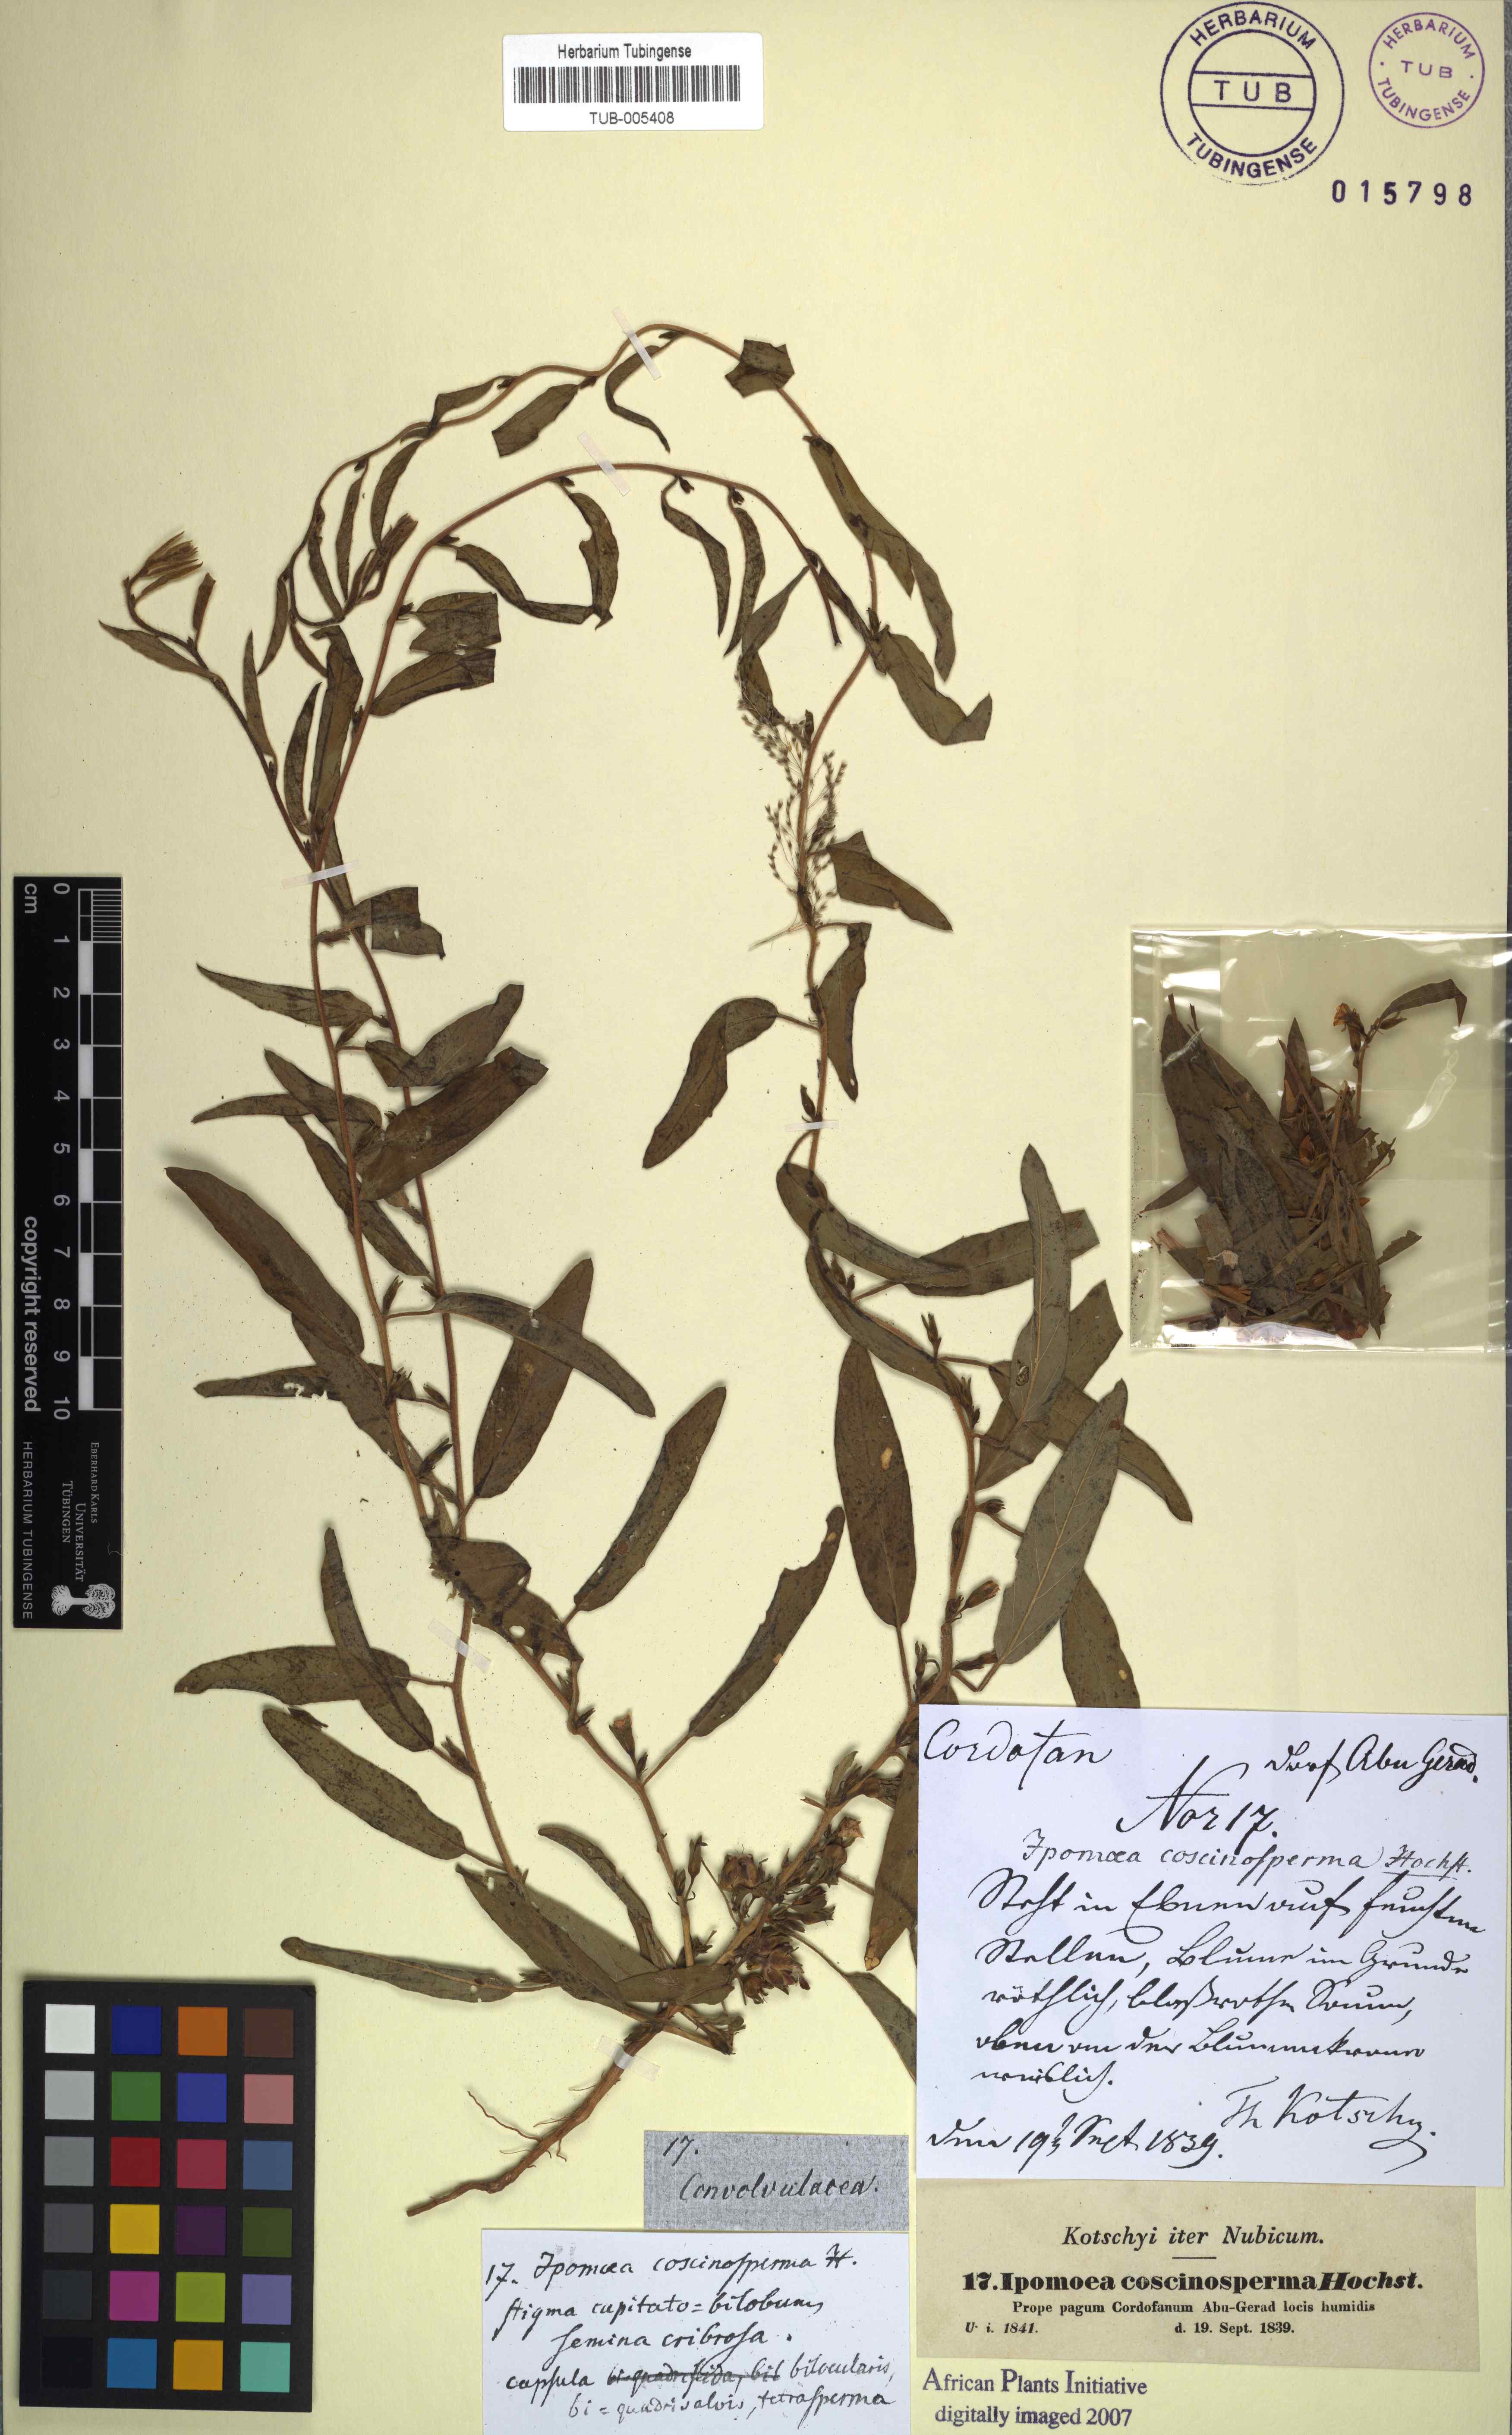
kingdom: Plantae
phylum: Tracheophyta
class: Magnoliopsida
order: Solanales
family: Convolvulaceae
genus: Ipomoea
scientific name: Ipomoea coscinosperma
